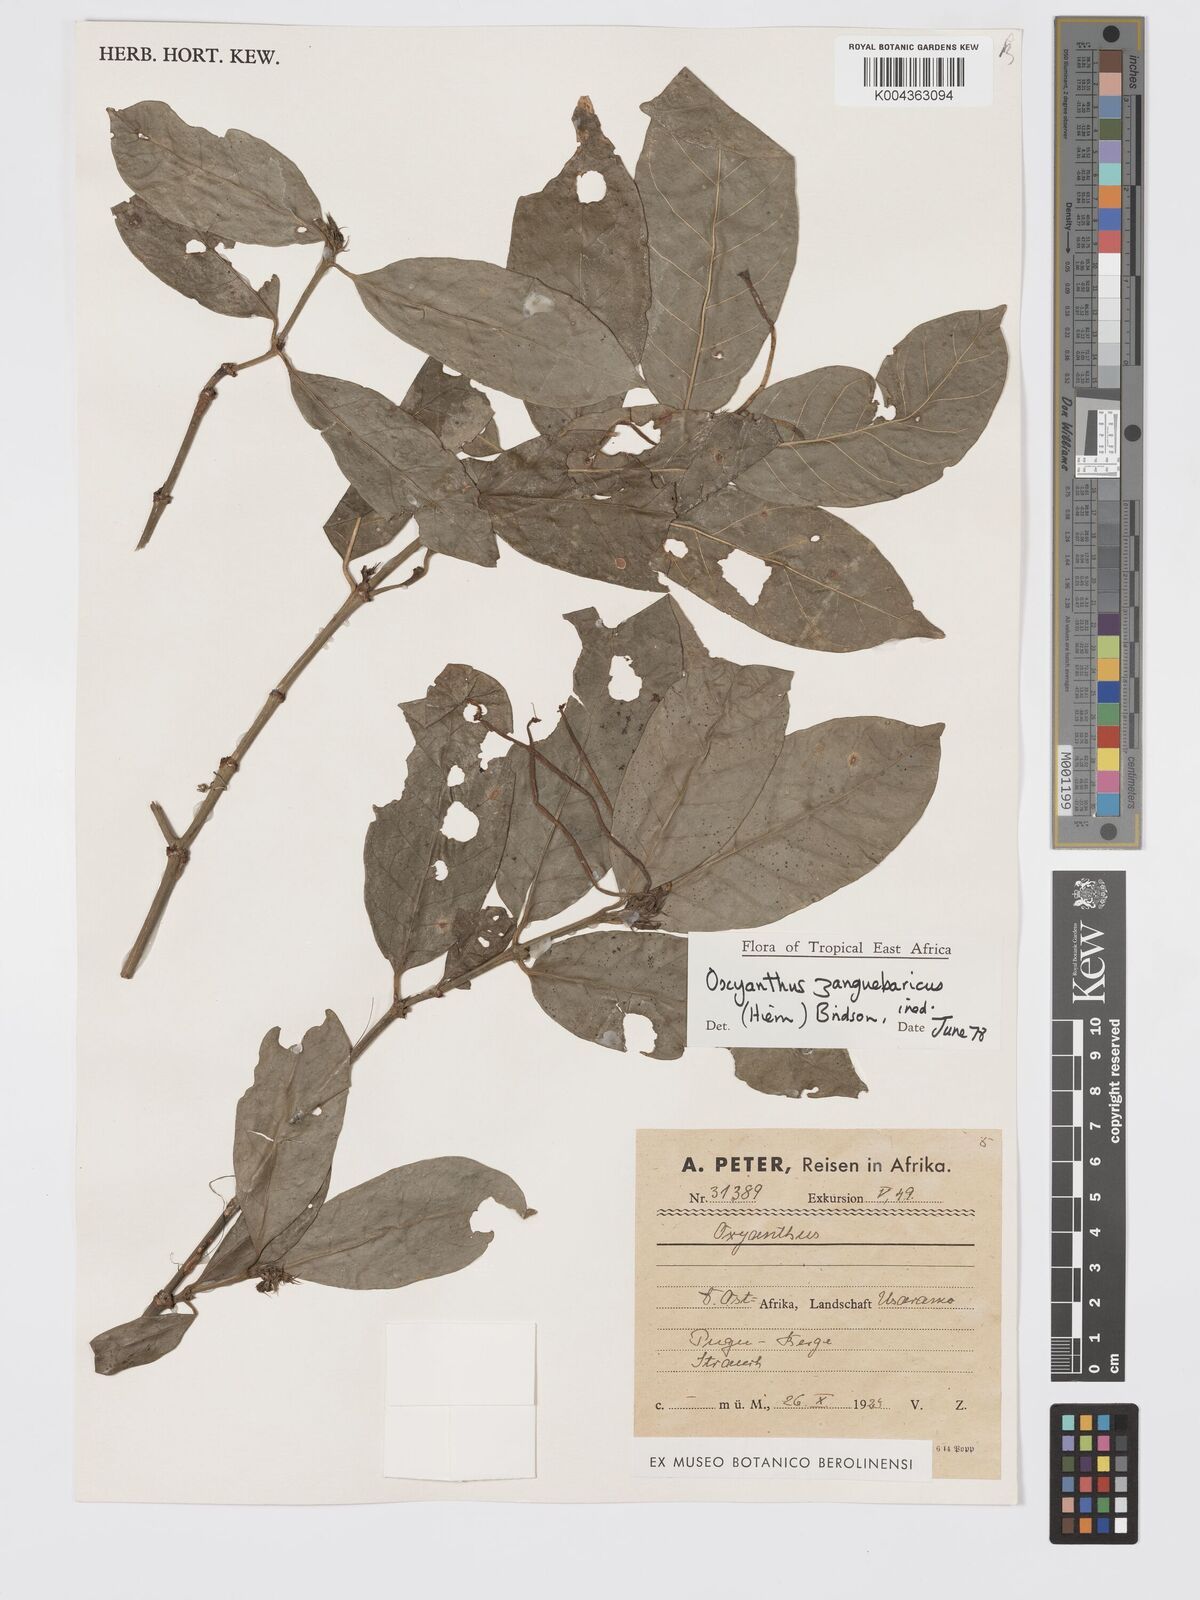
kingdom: Plantae
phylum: Tracheophyta
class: Magnoliopsida
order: Gentianales
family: Rubiaceae
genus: Oxyanthus
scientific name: Oxyanthus zanguebaricus
